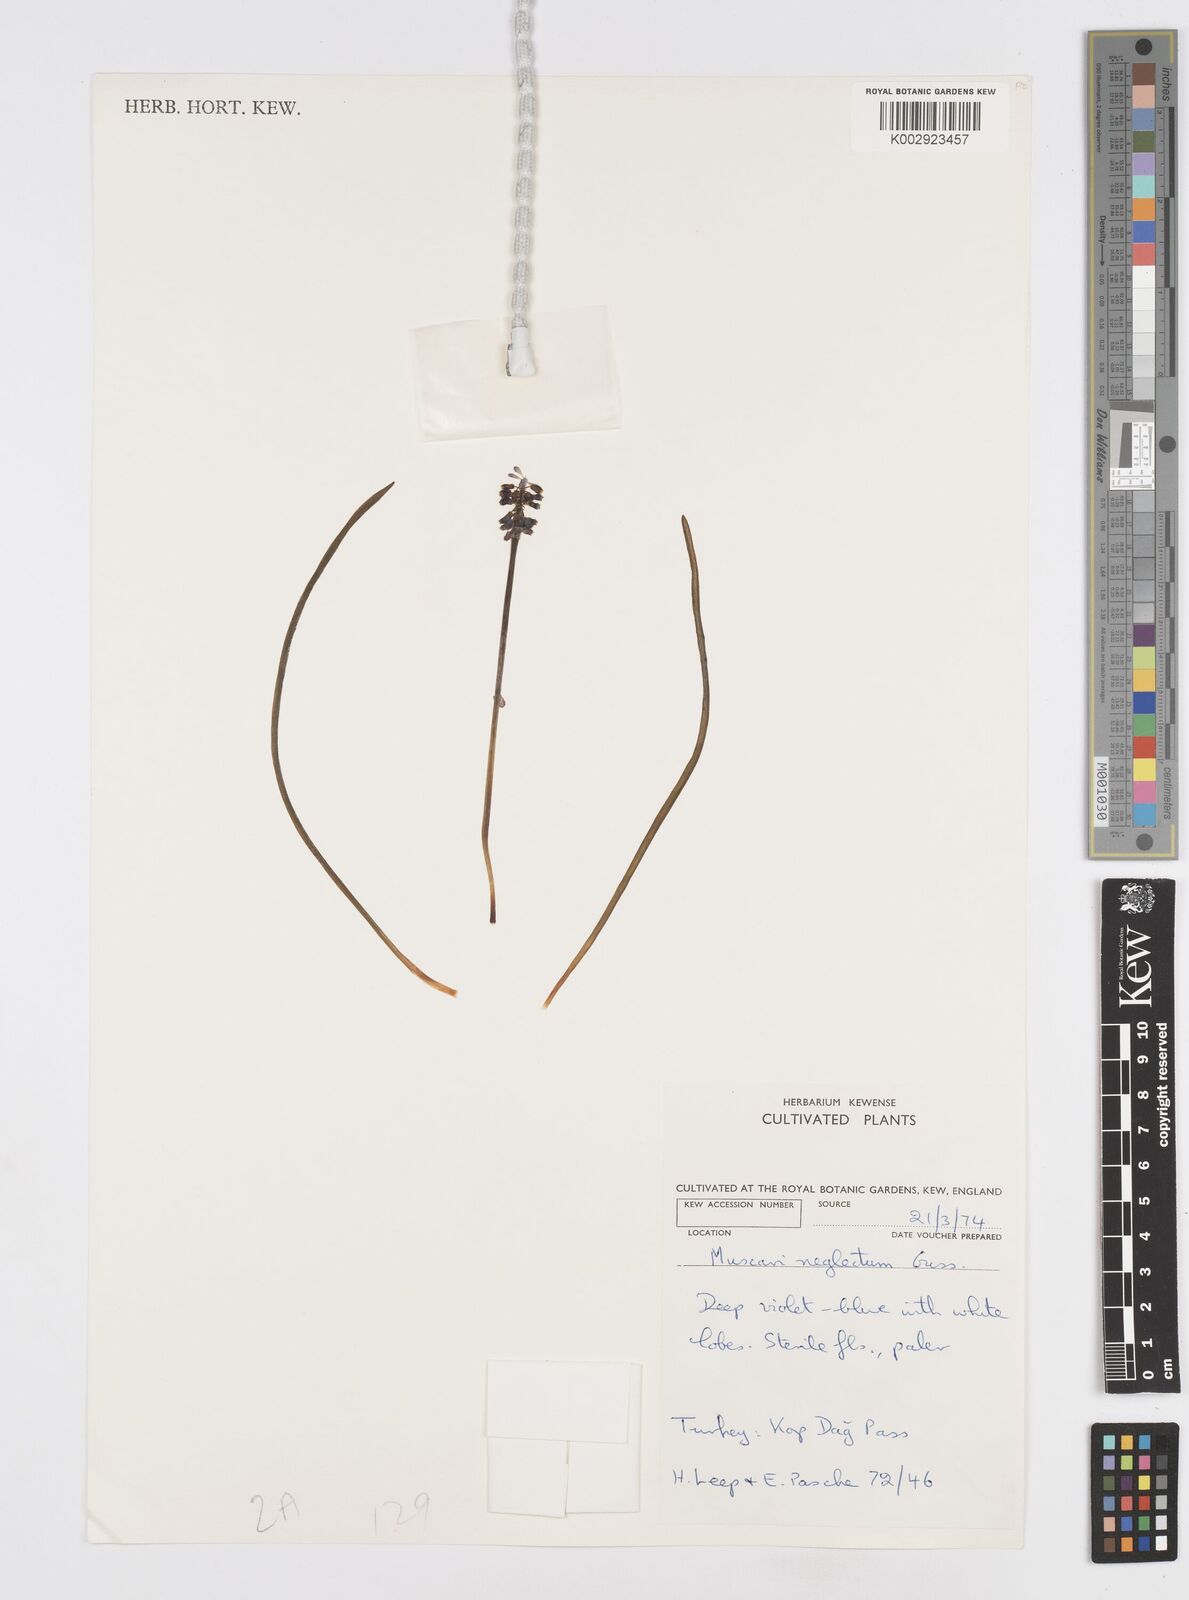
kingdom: Plantae
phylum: Tracheophyta
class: Liliopsida
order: Asparagales
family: Asparagaceae
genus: Muscari
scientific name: Muscari neglectum
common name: Grape-hyacinth
